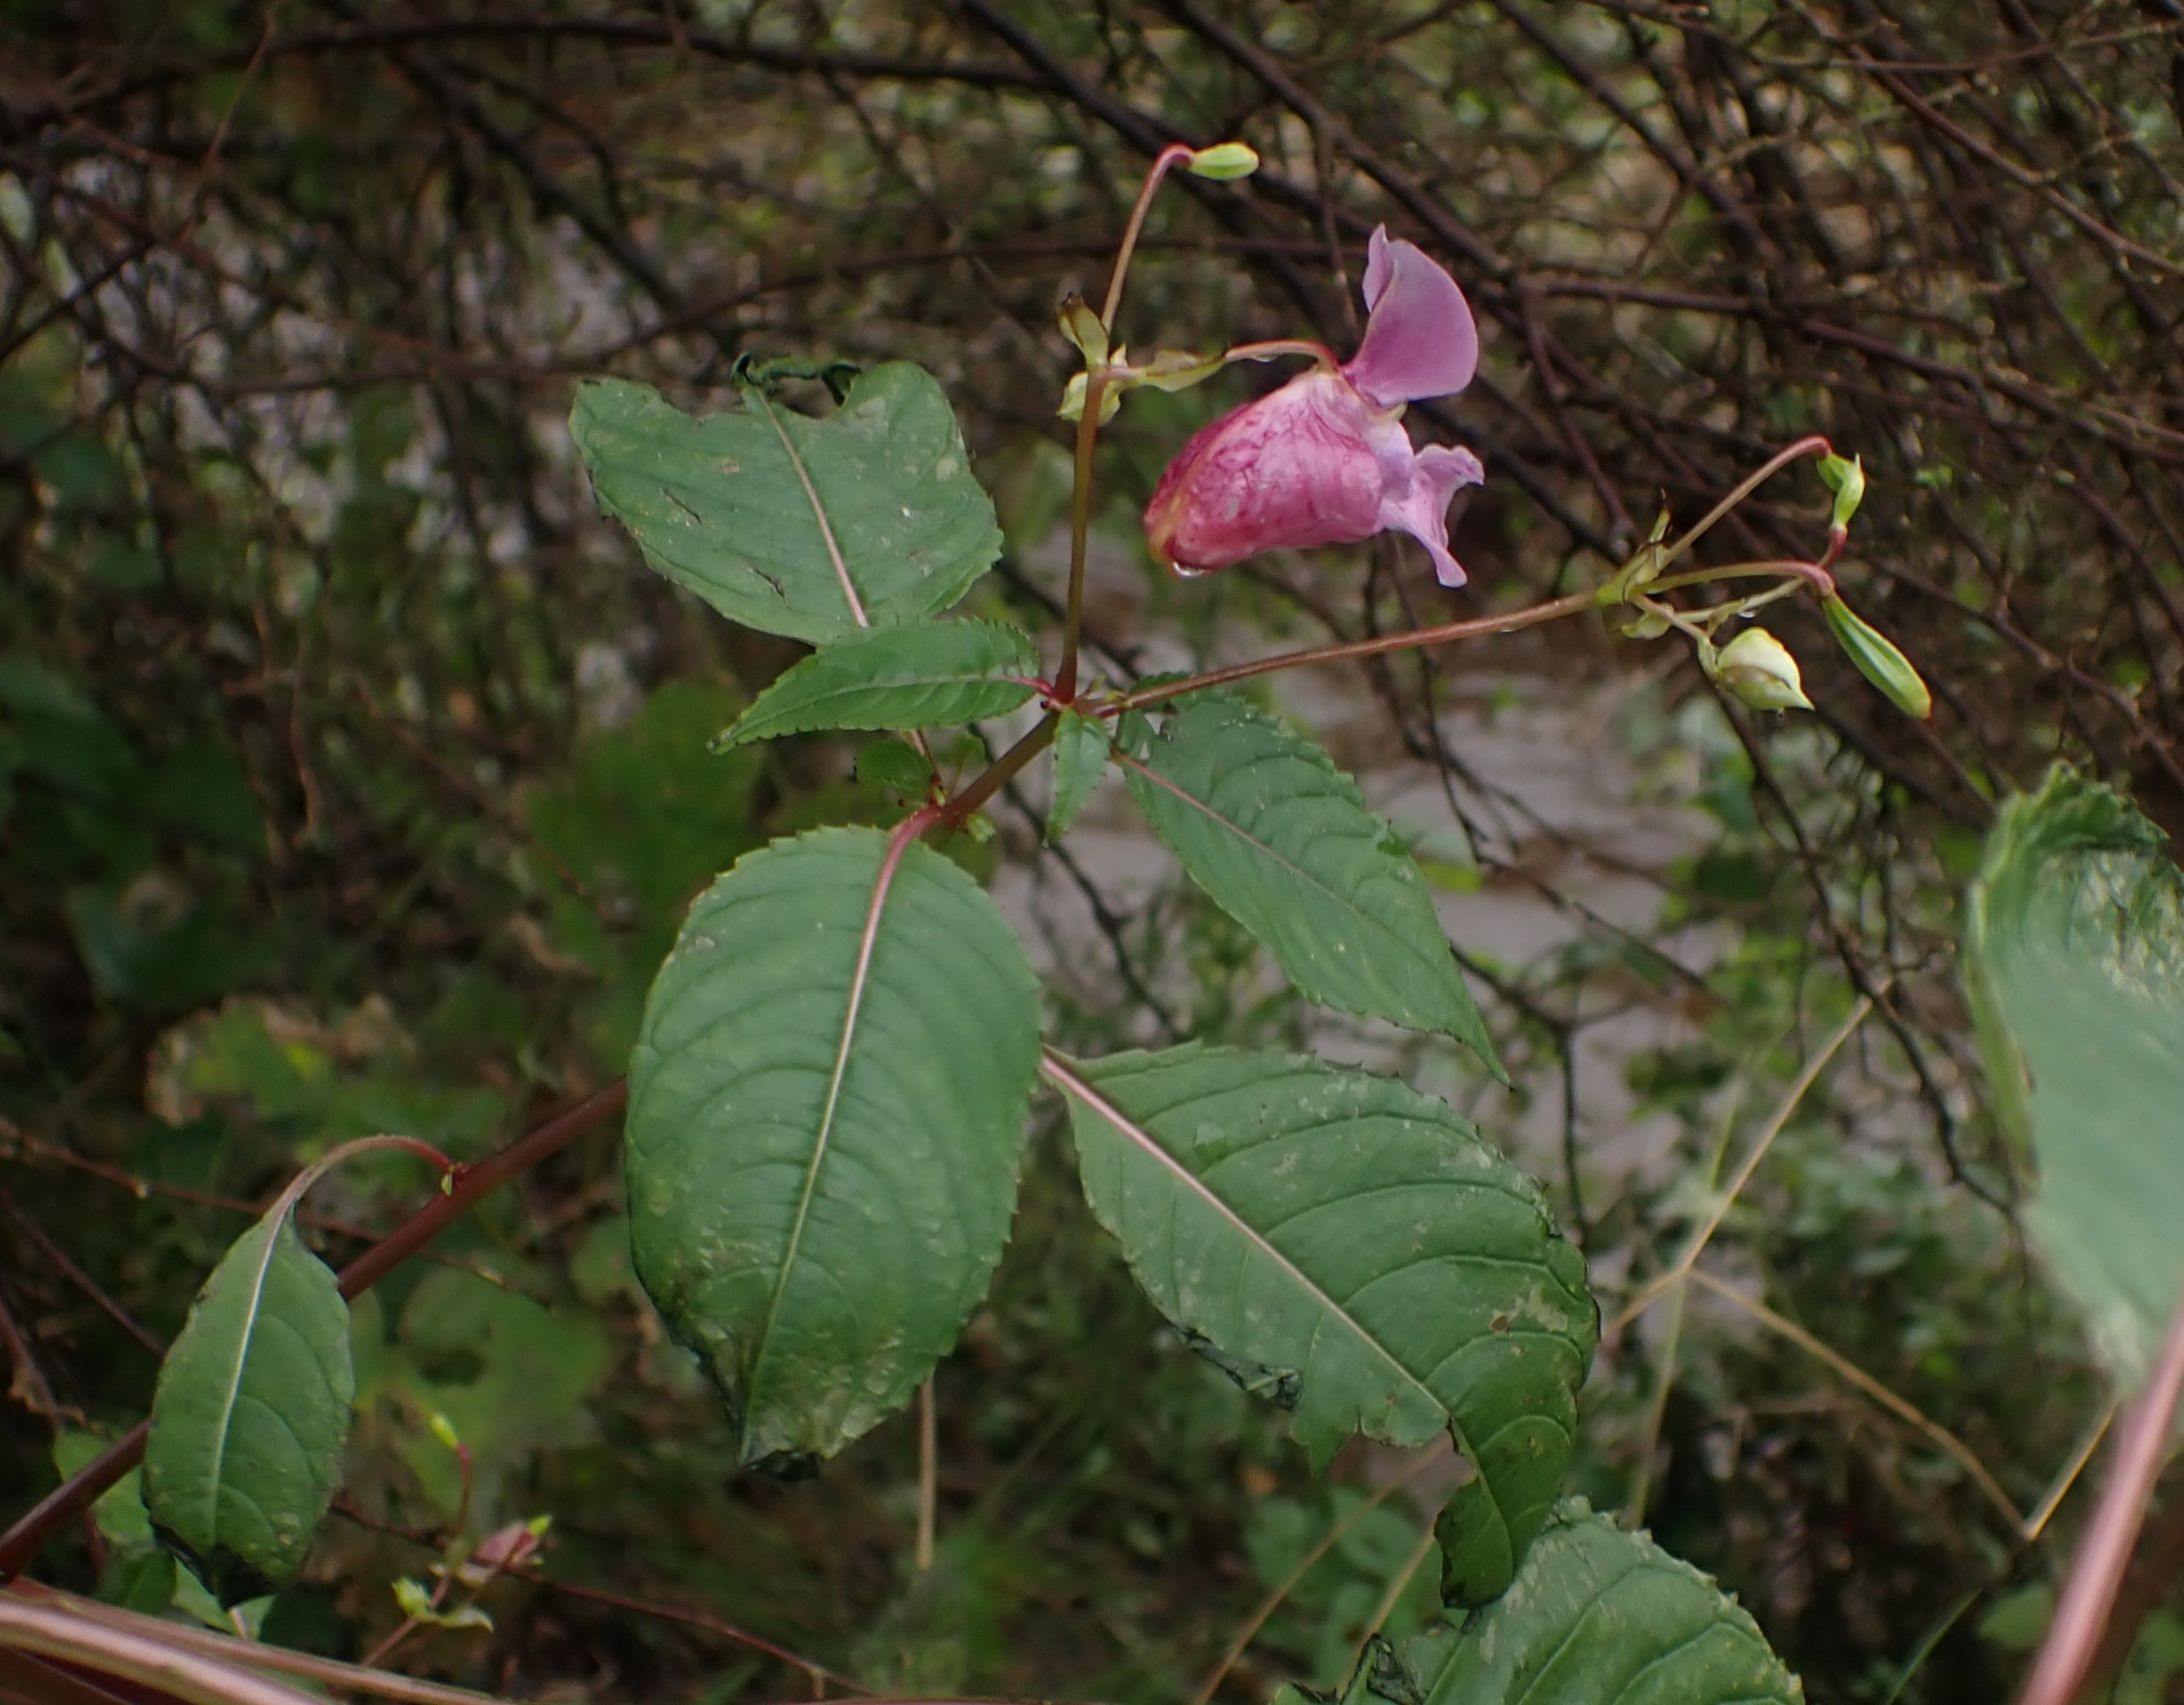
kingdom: Plantae
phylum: Tracheophyta
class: Magnoliopsida
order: Ericales
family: Balsaminaceae
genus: Impatiens
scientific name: Impatiens glandulifera
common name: Kæmpe-balsamin
